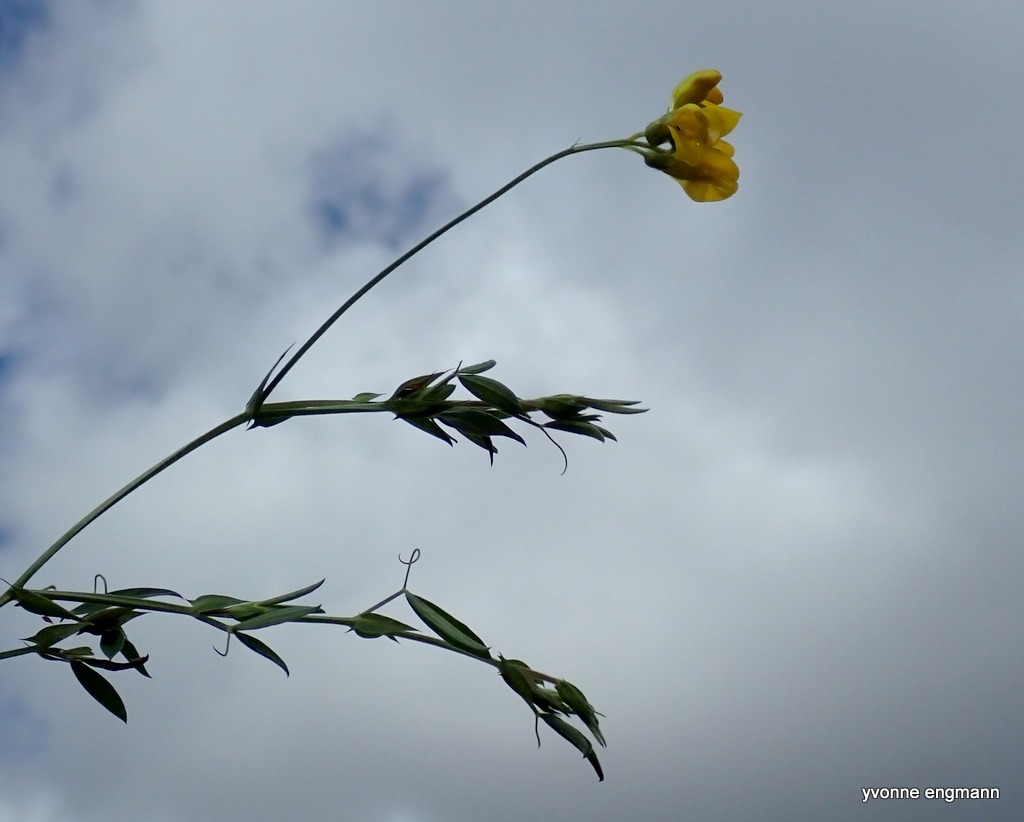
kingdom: Plantae
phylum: Tracheophyta
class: Magnoliopsida
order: Fabales
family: Fabaceae
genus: Lathyrus
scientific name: Lathyrus pratensis
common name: Gul fladbælg
